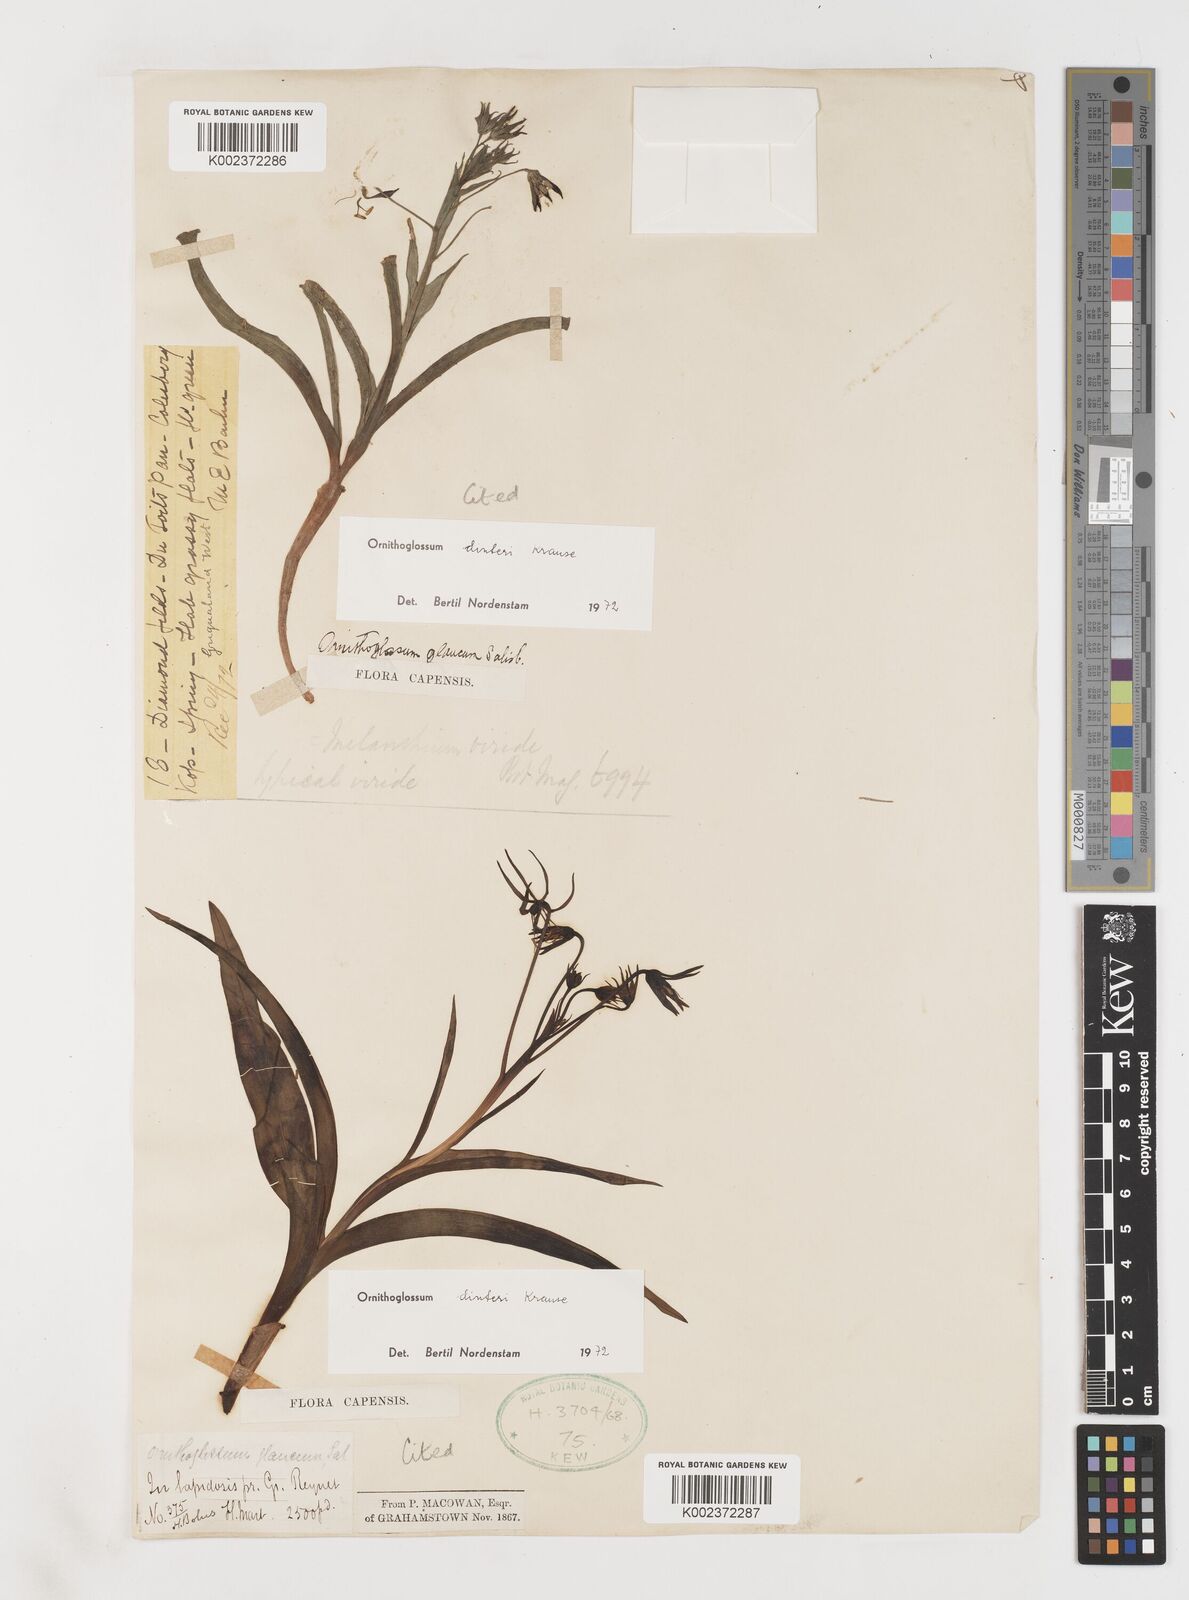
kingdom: Plantae
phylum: Tracheophyta
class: Liliopsida
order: Liliales
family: Colchicaceae
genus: Ornithoglossum
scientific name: Ornithoglossum dinteri
